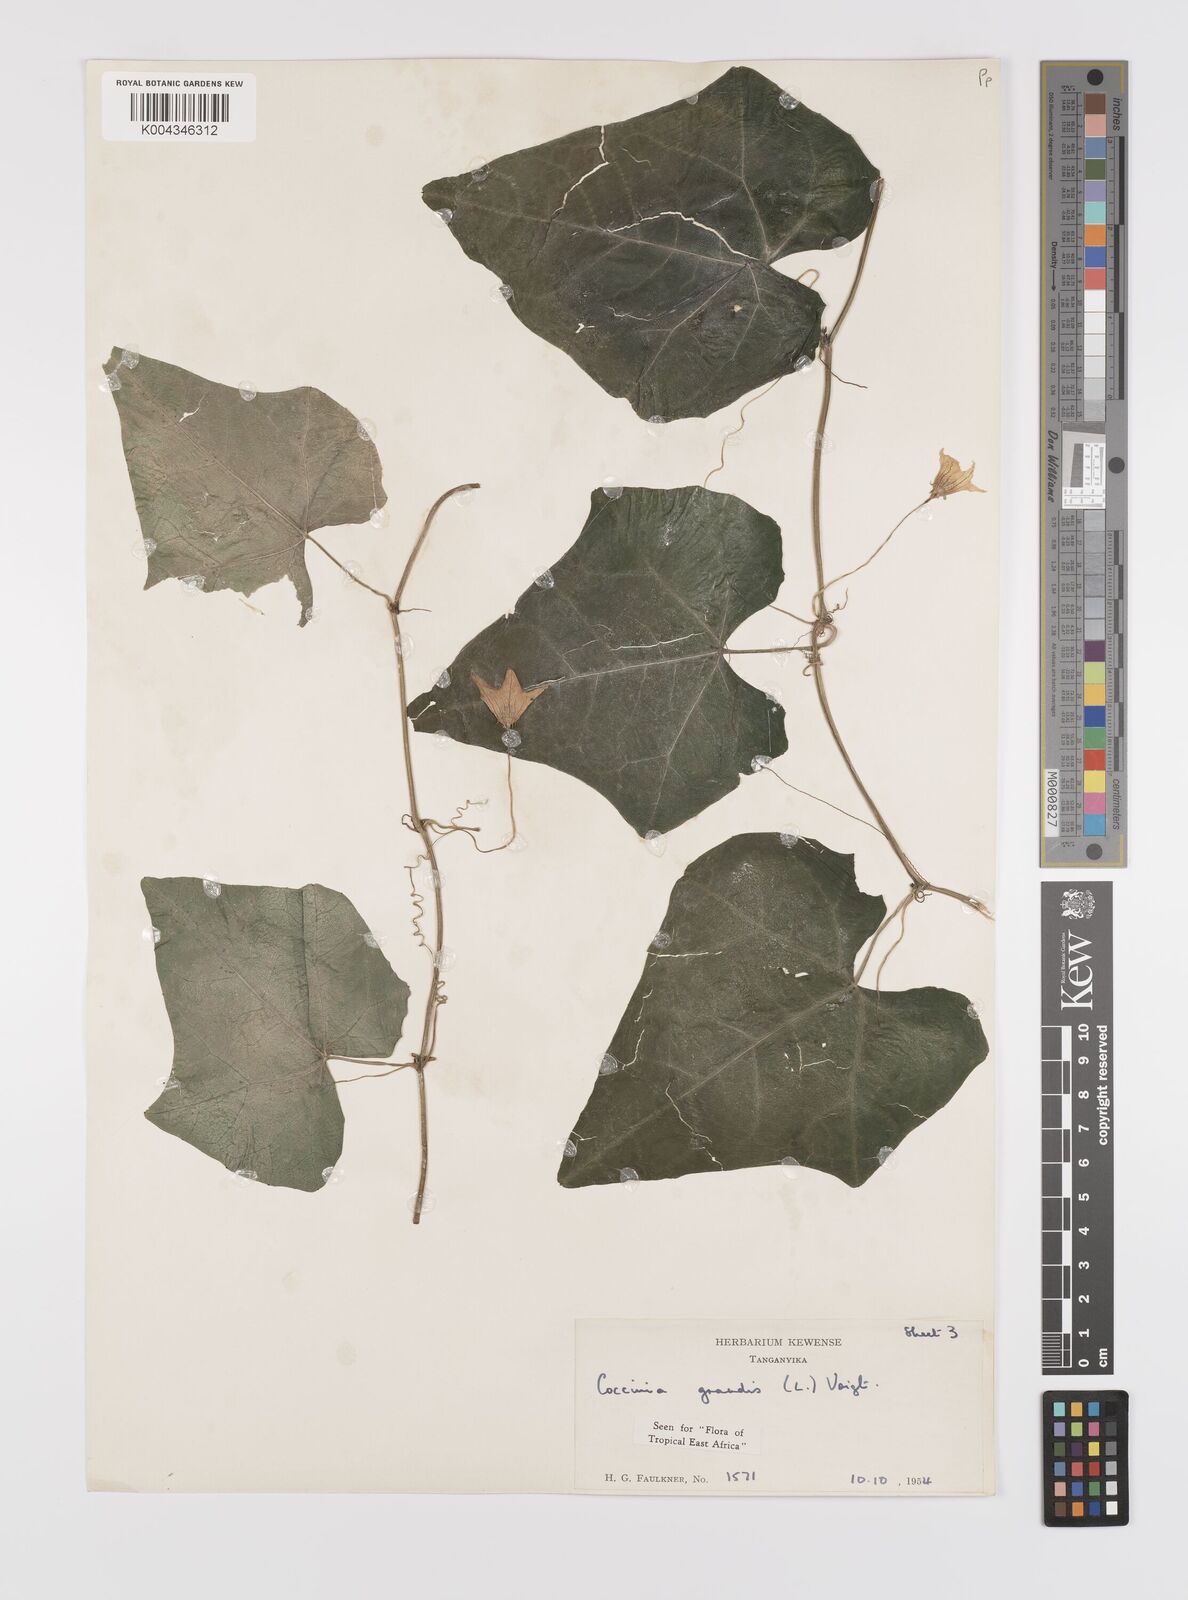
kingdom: Plantae
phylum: Tracheophyta
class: Magnoliopsida
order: Cucurbitales
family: Cucurbitaceae
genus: Coccinia
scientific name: Coccinia grandis
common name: Ivy gourd
